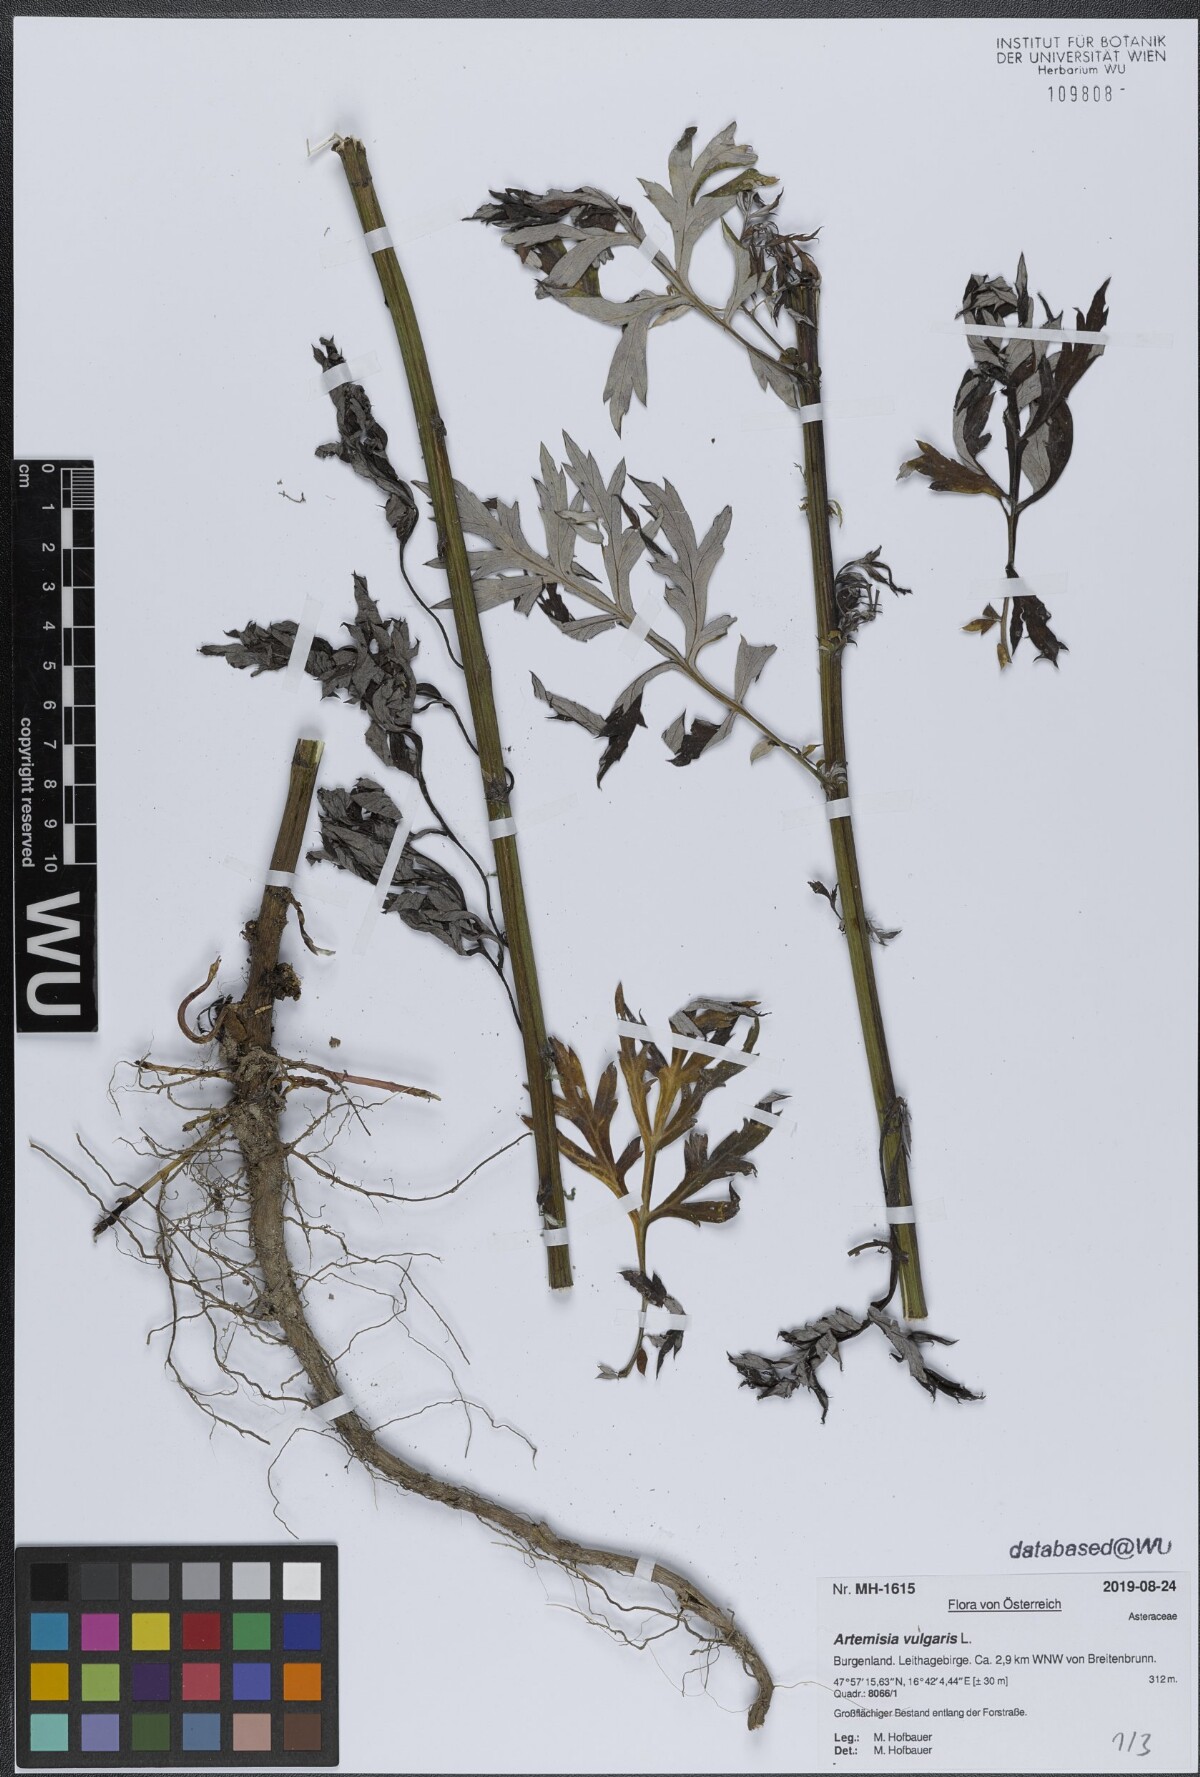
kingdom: Plantae
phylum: Tracheophyta
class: Magnoliopsida
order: Asterales
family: Asteraceae
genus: Artemisia
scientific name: Artemisia vulgaris
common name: Mugwort
